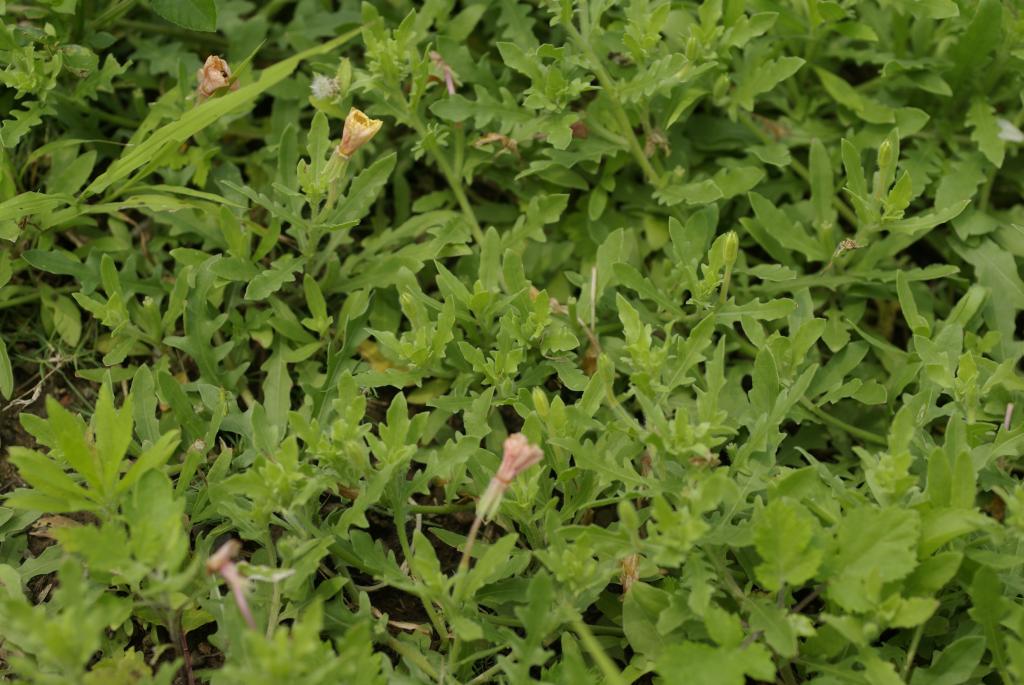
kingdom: Plantae
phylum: Tracheophyta
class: Magnoliopsida
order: Myrtales
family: Onagraceae
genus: Oenothera
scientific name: Oenothera laciniata
